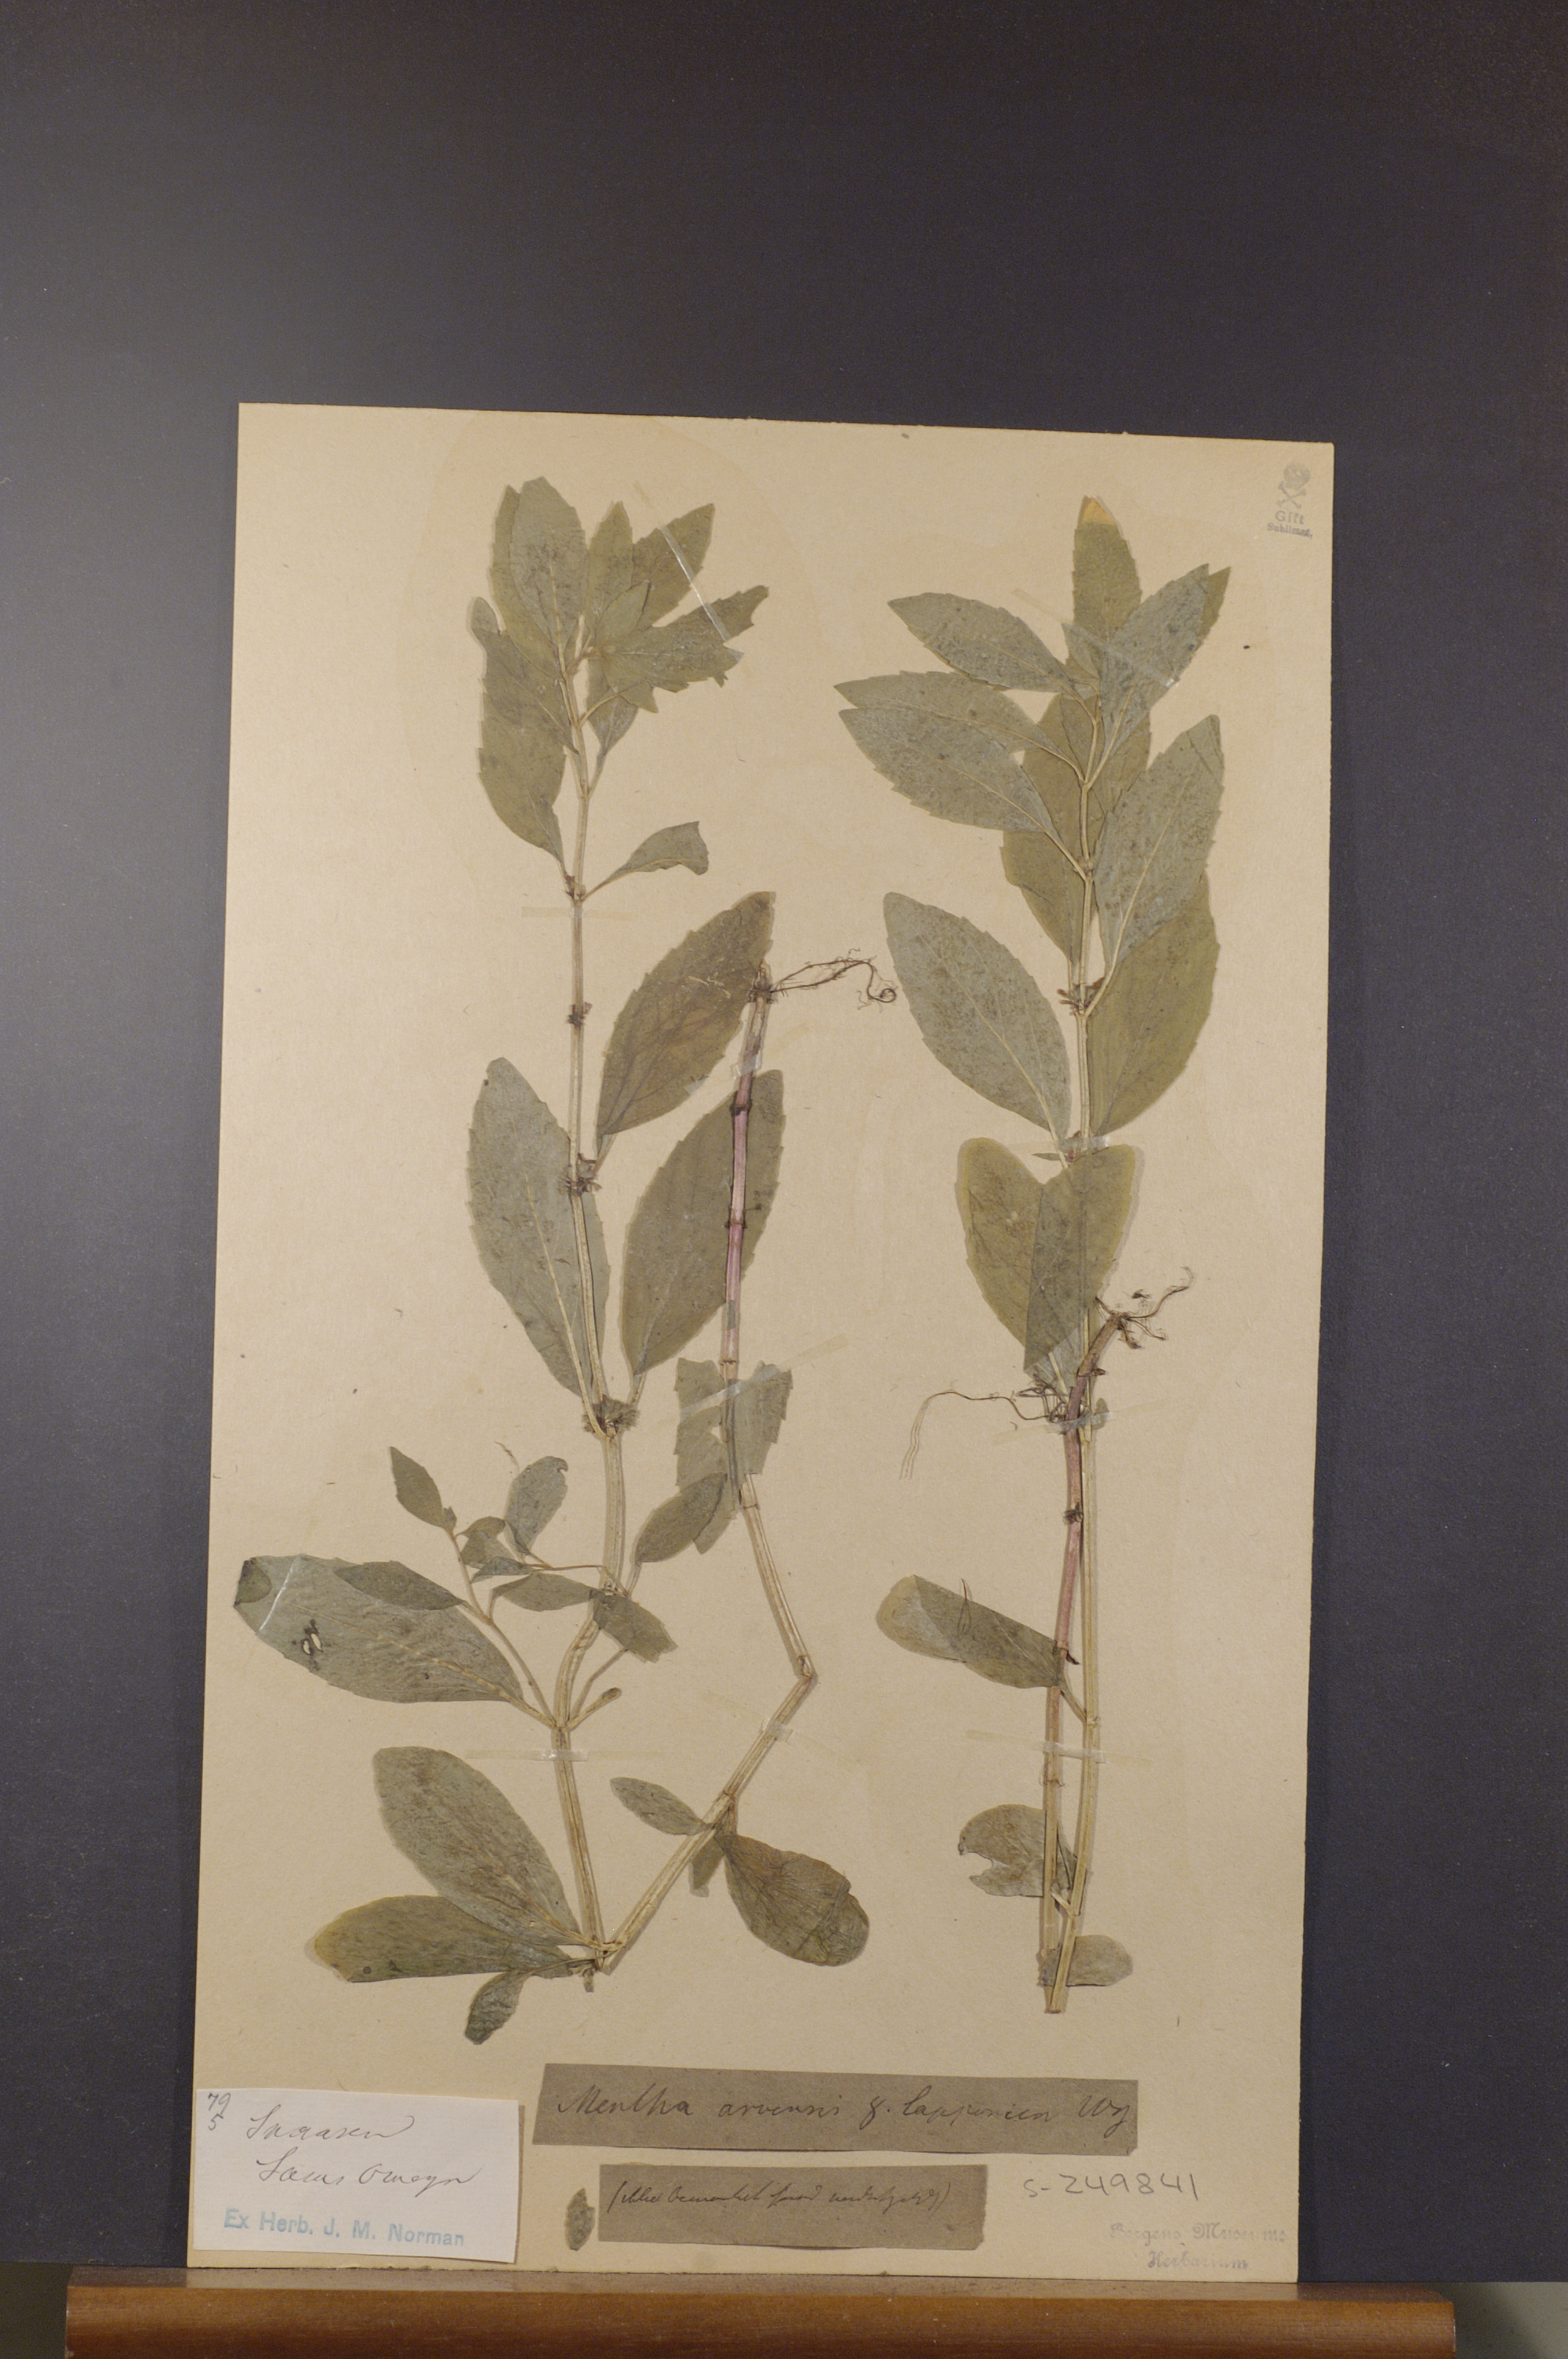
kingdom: Plantae
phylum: Tracheophyta
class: Magnoliopsida
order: Lamiales
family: Lamiaceae
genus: Mentha
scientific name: Mentha arvensis
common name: Corn mint
